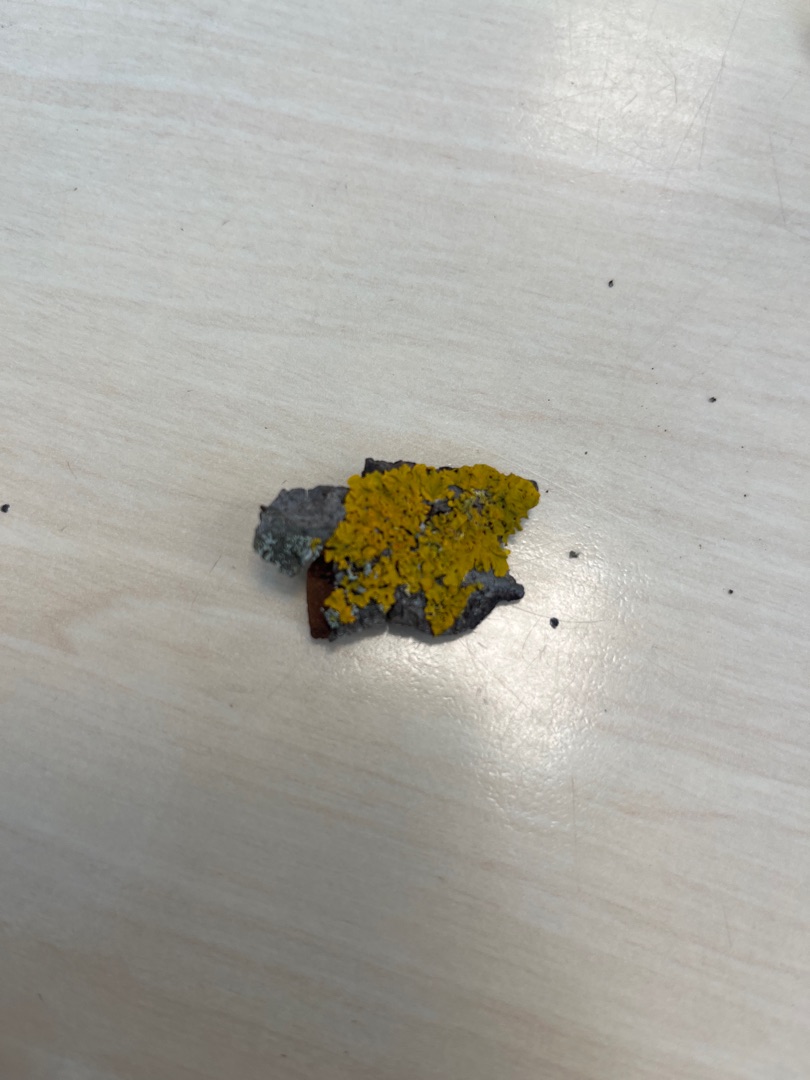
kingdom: Fungi
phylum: Ascomycota
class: Lecanoromycetes
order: Teloschistales
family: Teloschistaceae
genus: Xanthoria
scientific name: Xanthoria parietina
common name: Almindelig væggelav
